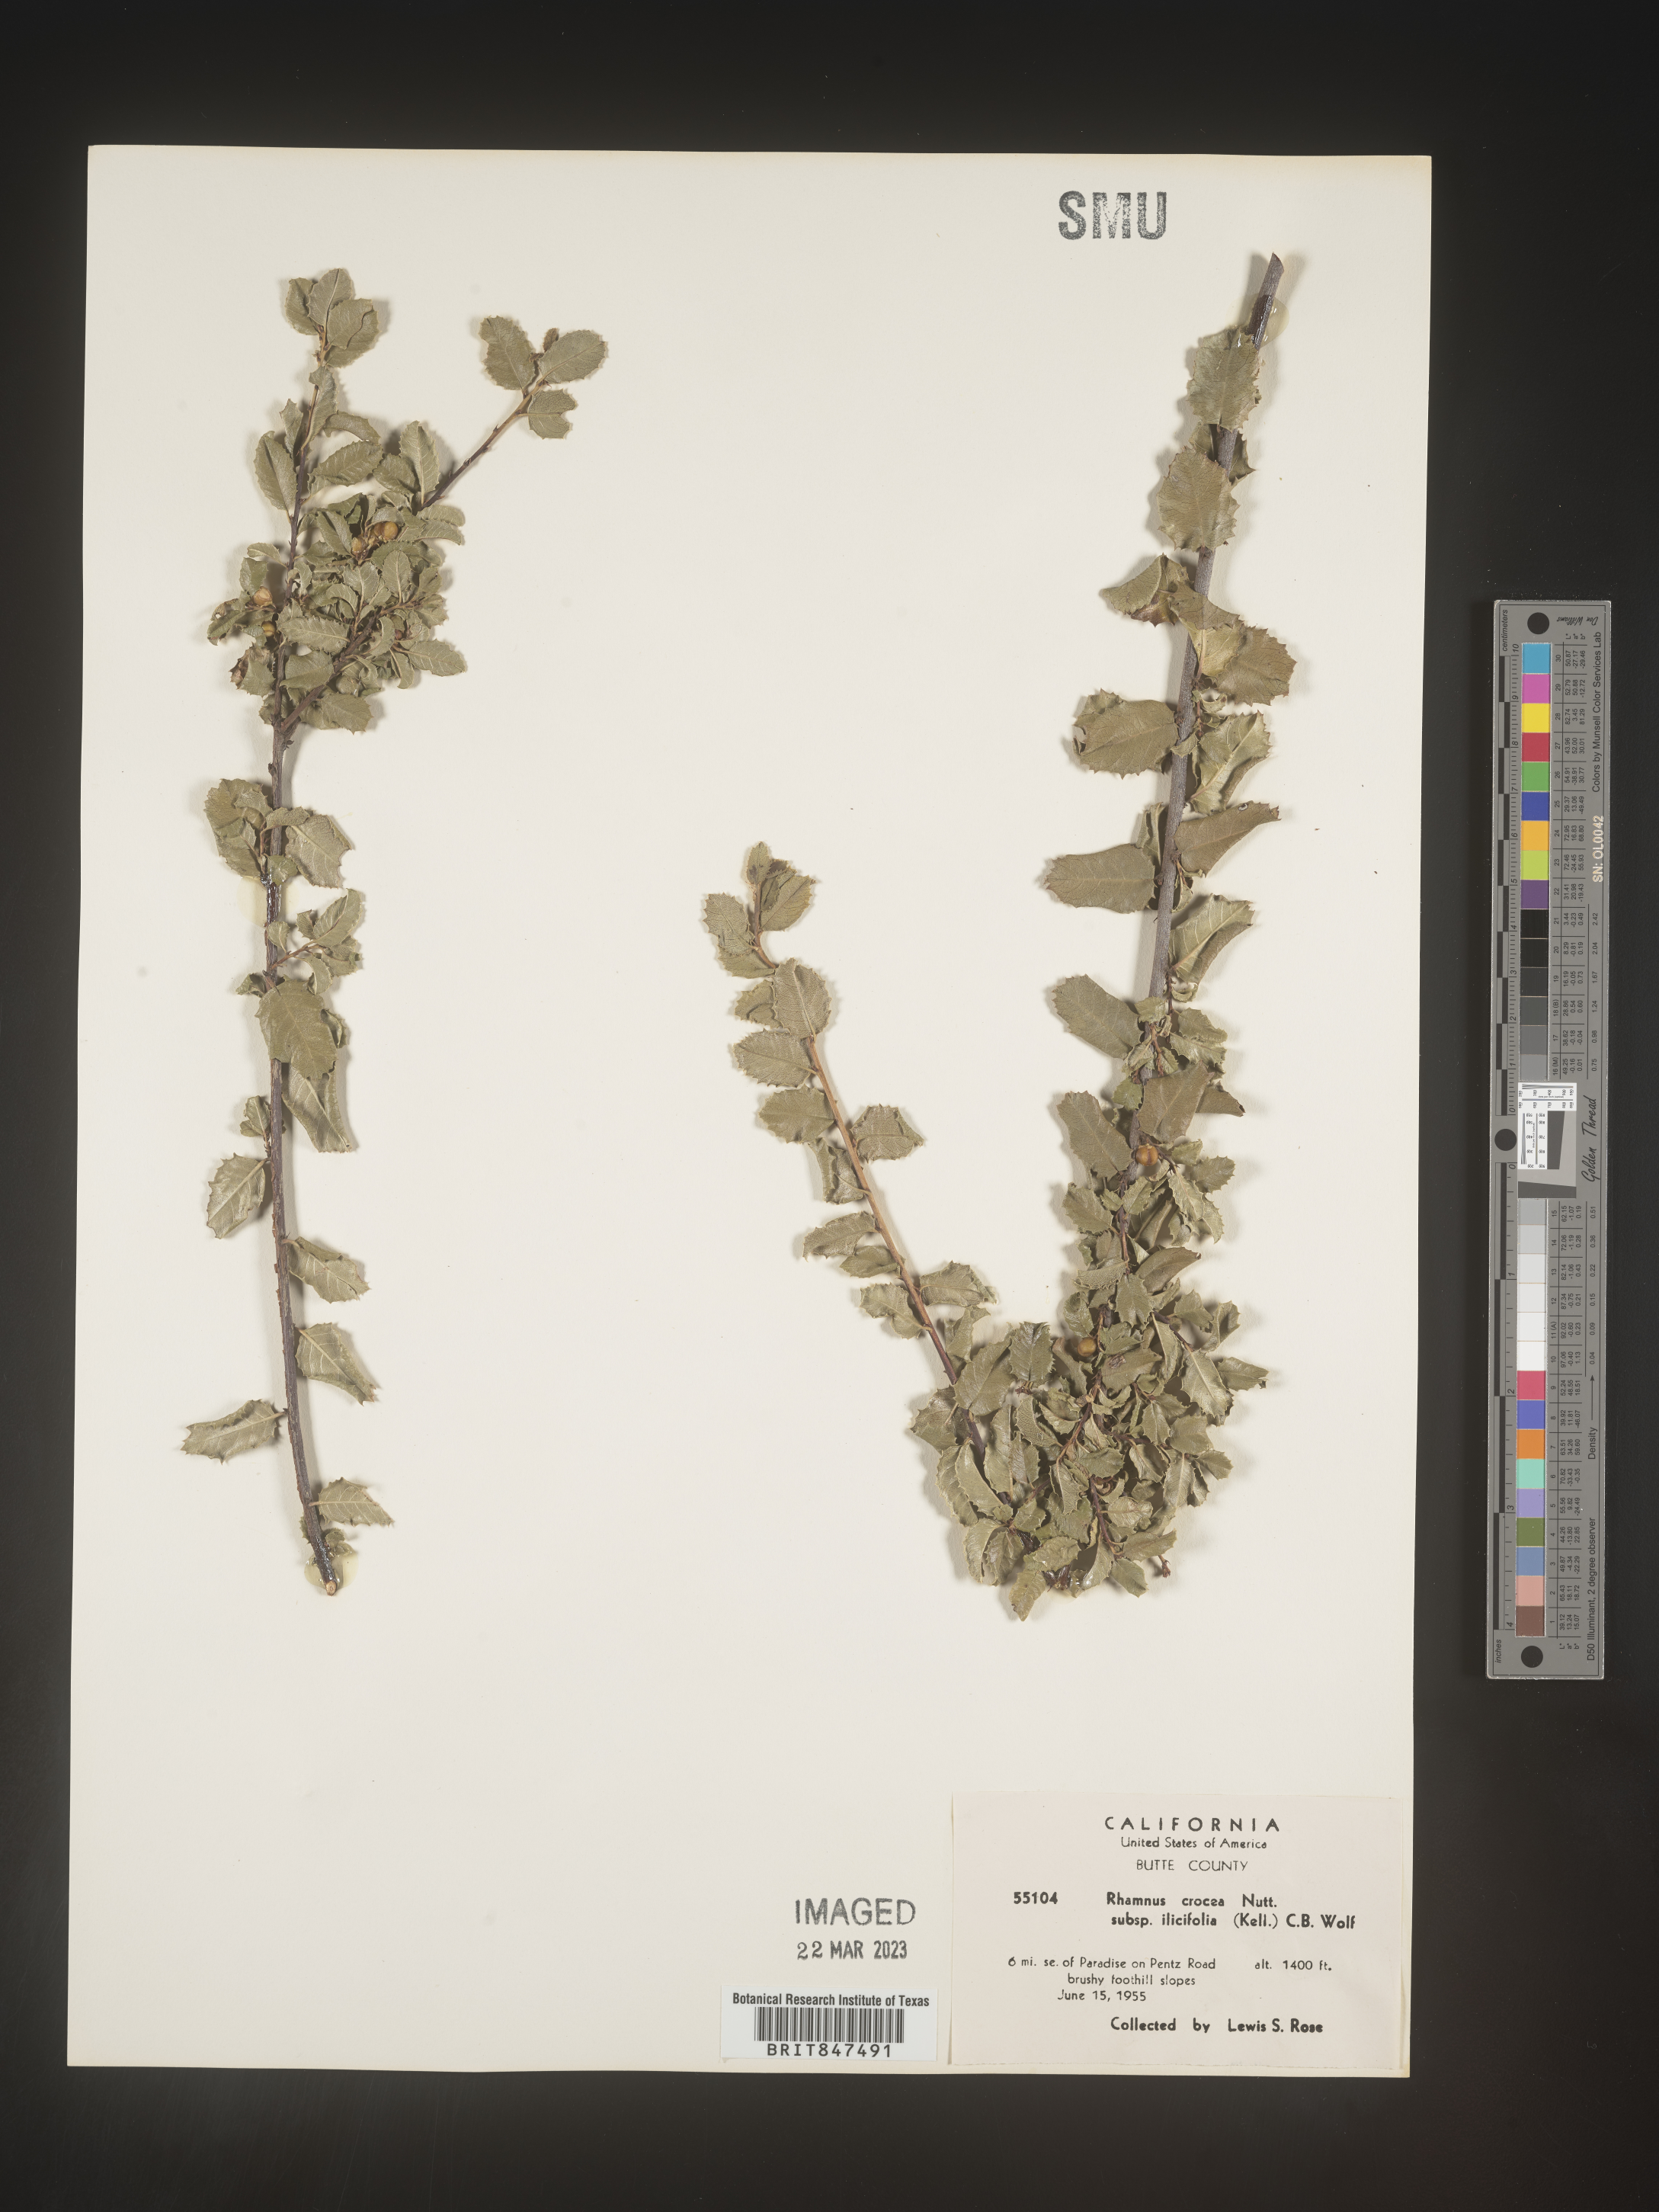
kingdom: Plantae
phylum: Tracheophyta
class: Magnoliopsida
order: Rosales
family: Rhamnaceae
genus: Endotropis
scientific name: Endotropis crocea
